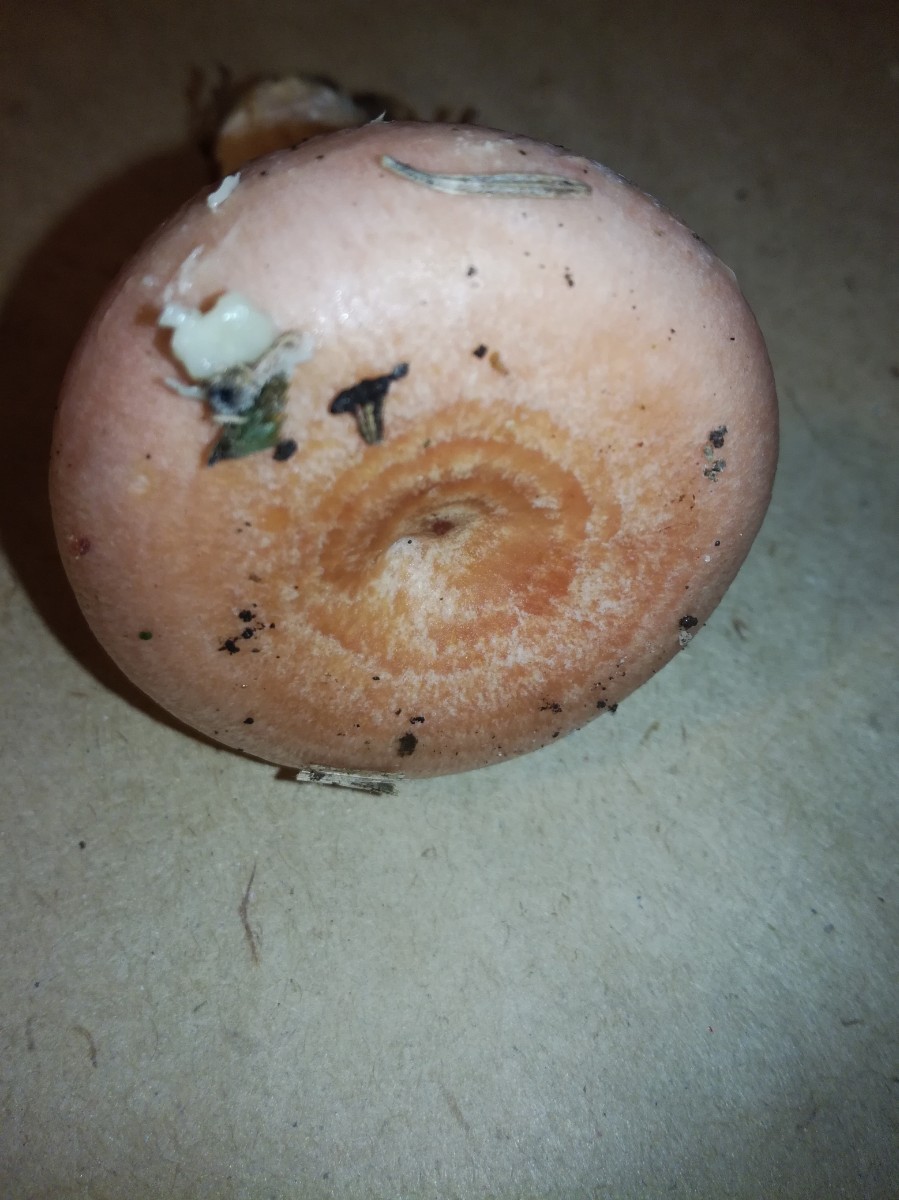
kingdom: Fungi
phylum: Basidiomycota
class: Agaricomycetes
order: Russulales
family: Russulaceae
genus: Lactarius
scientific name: Lactarius torminosus
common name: skægget mælkehat
